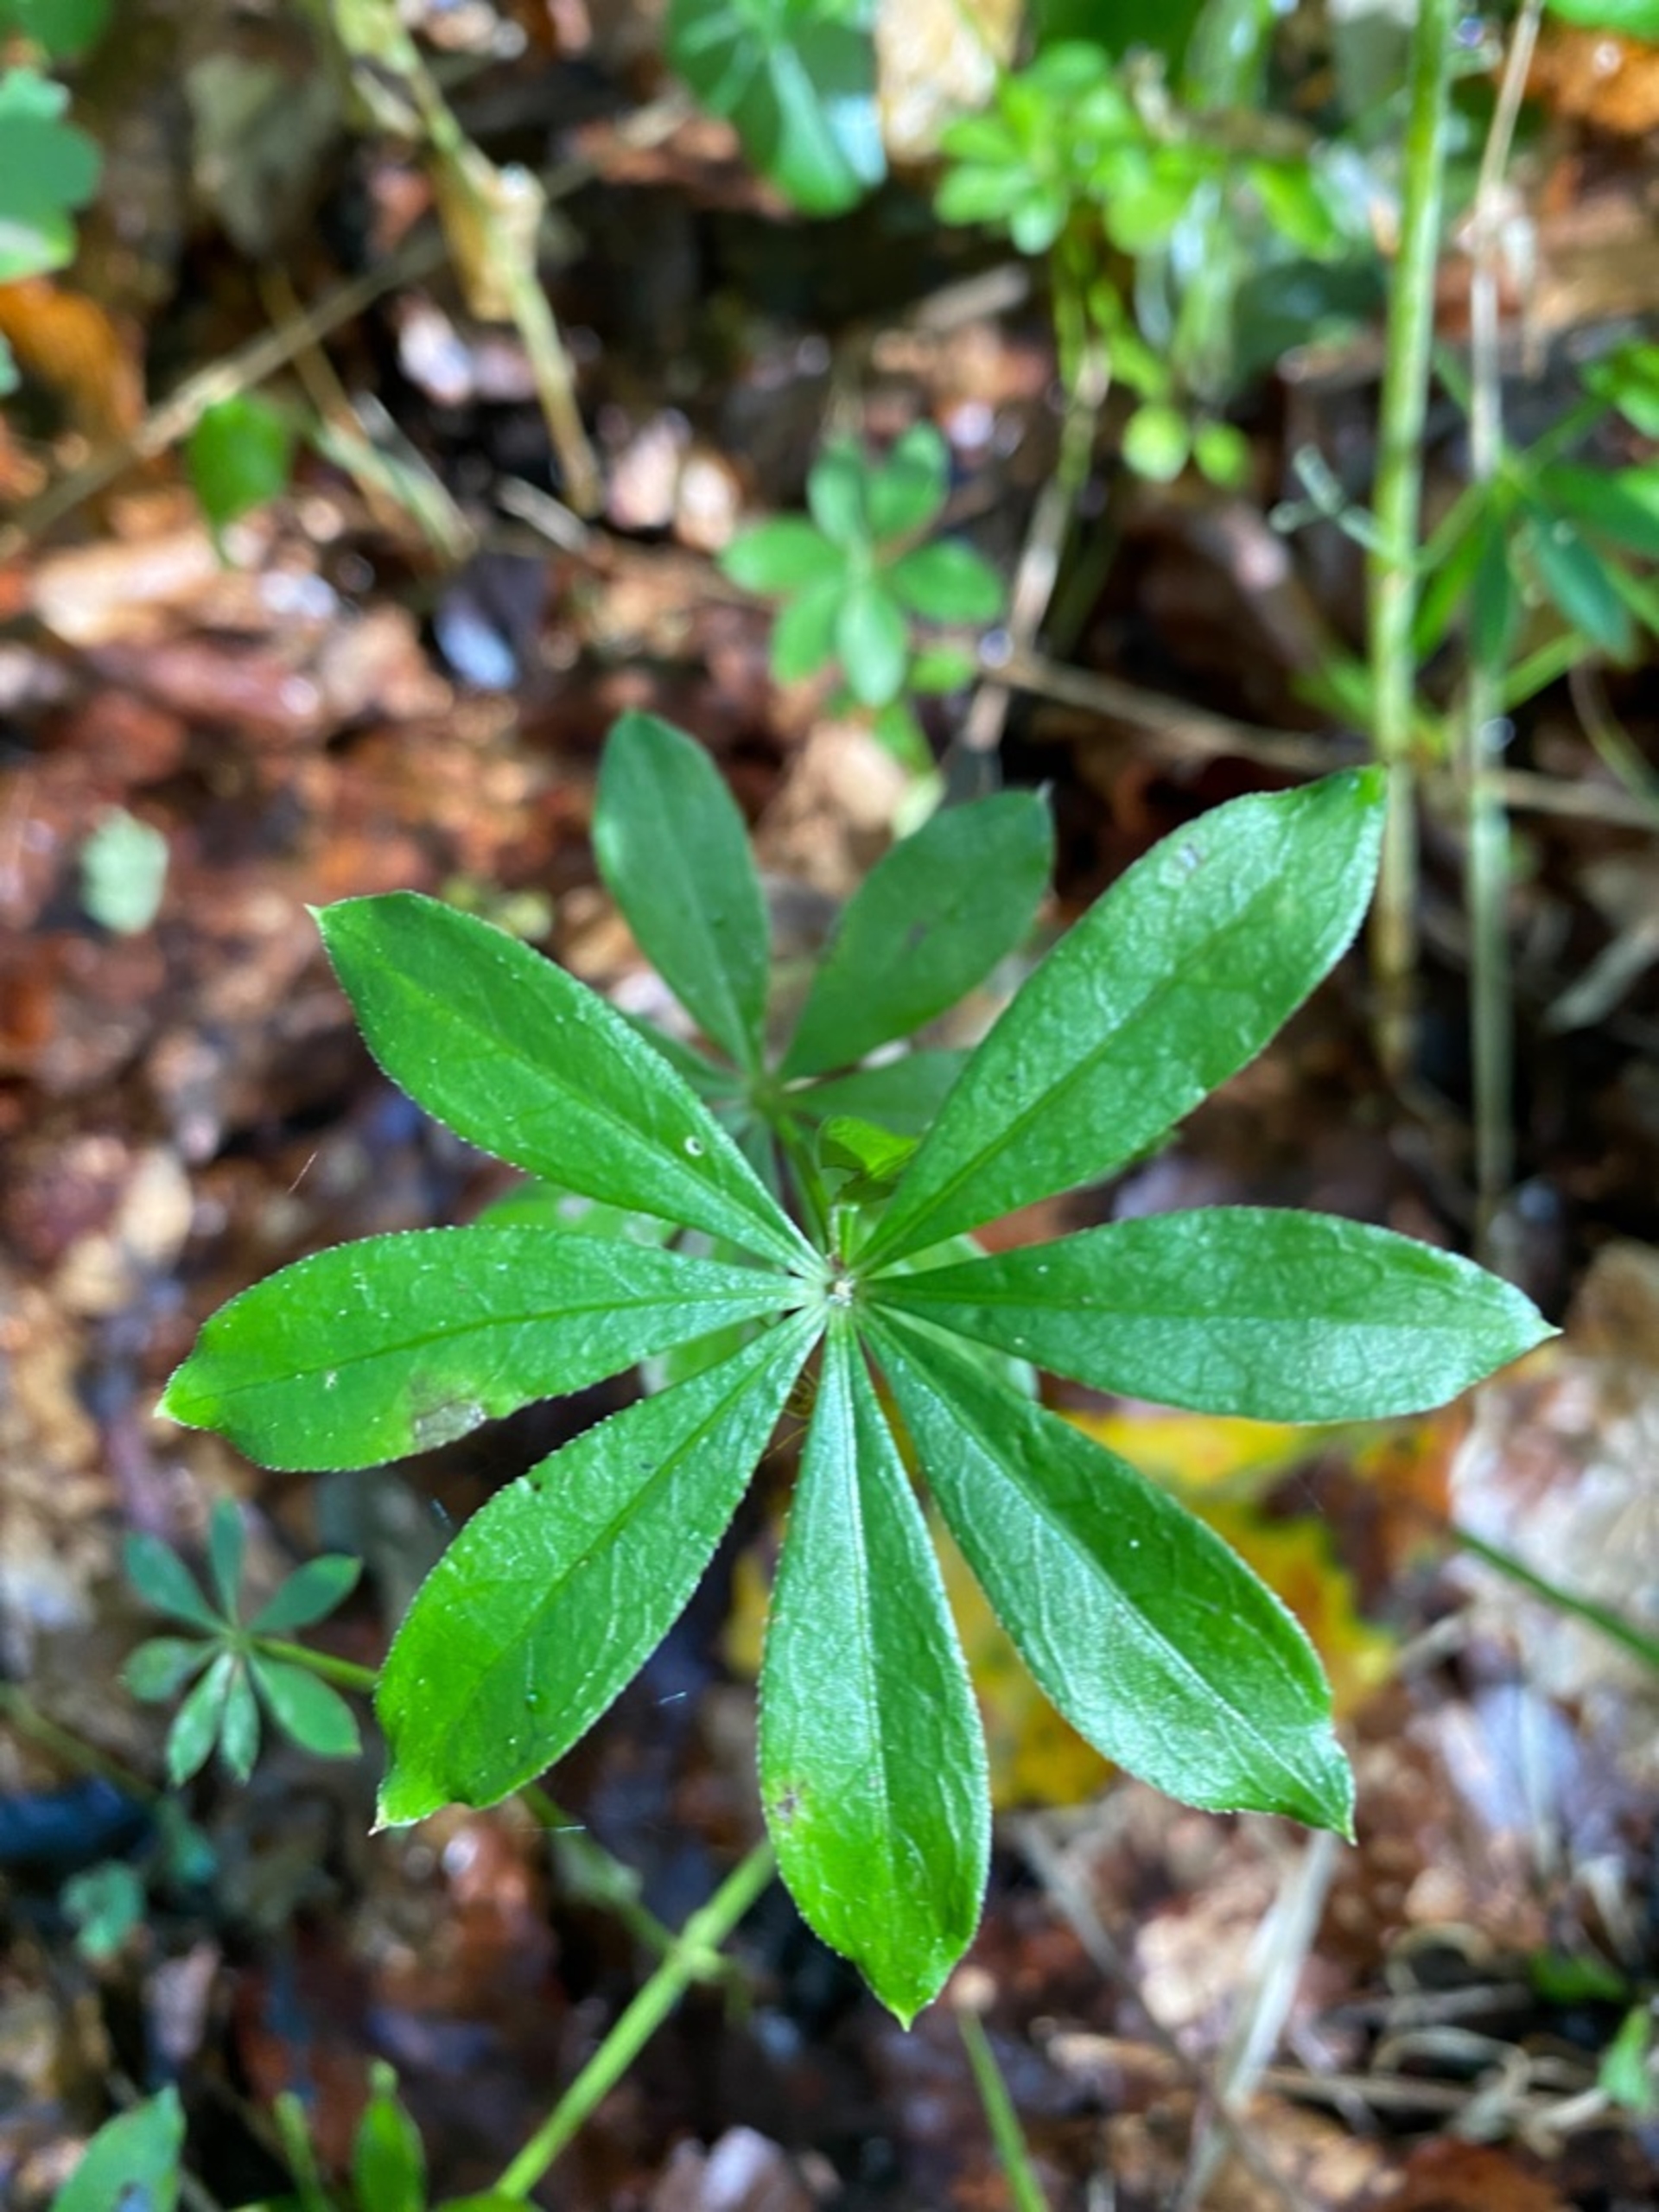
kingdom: Plantae
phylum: Tracheophyta
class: Magnoliopsida
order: Gentianales
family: Rubiaceae
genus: Galium
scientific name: Galium odoratum
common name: Skovmærke
